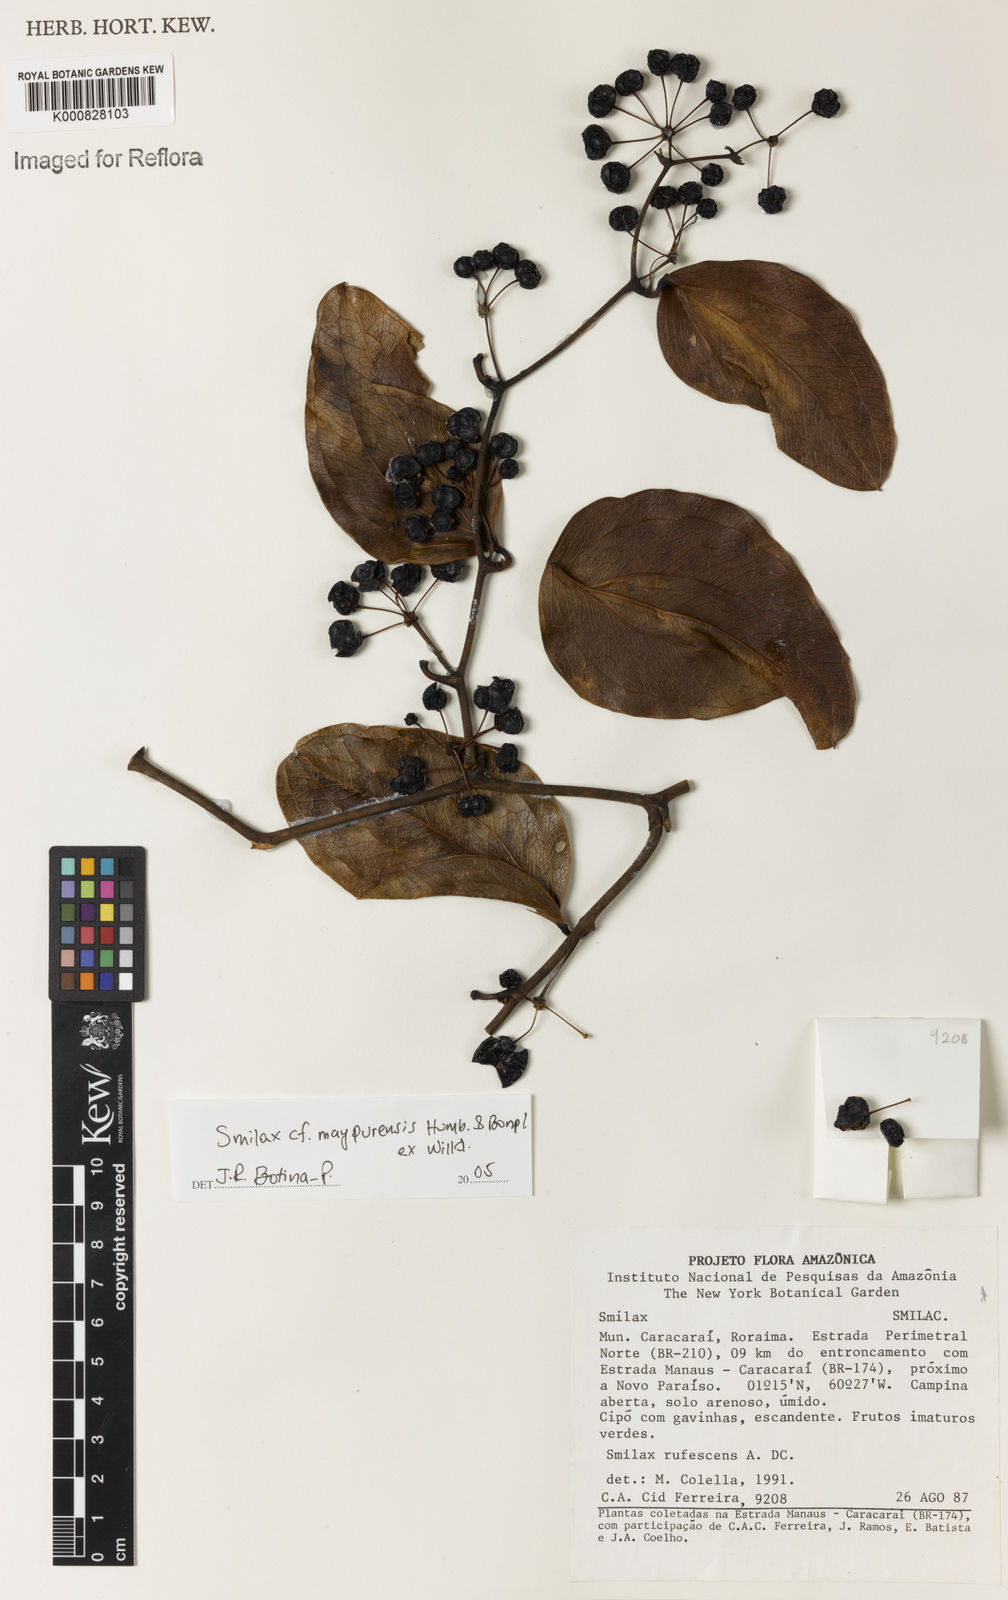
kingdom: Plantae
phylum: Tracheophyta
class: Liliopsida
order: Liliales
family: Smilacaceae
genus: Smilax
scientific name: Smilax rufescens
